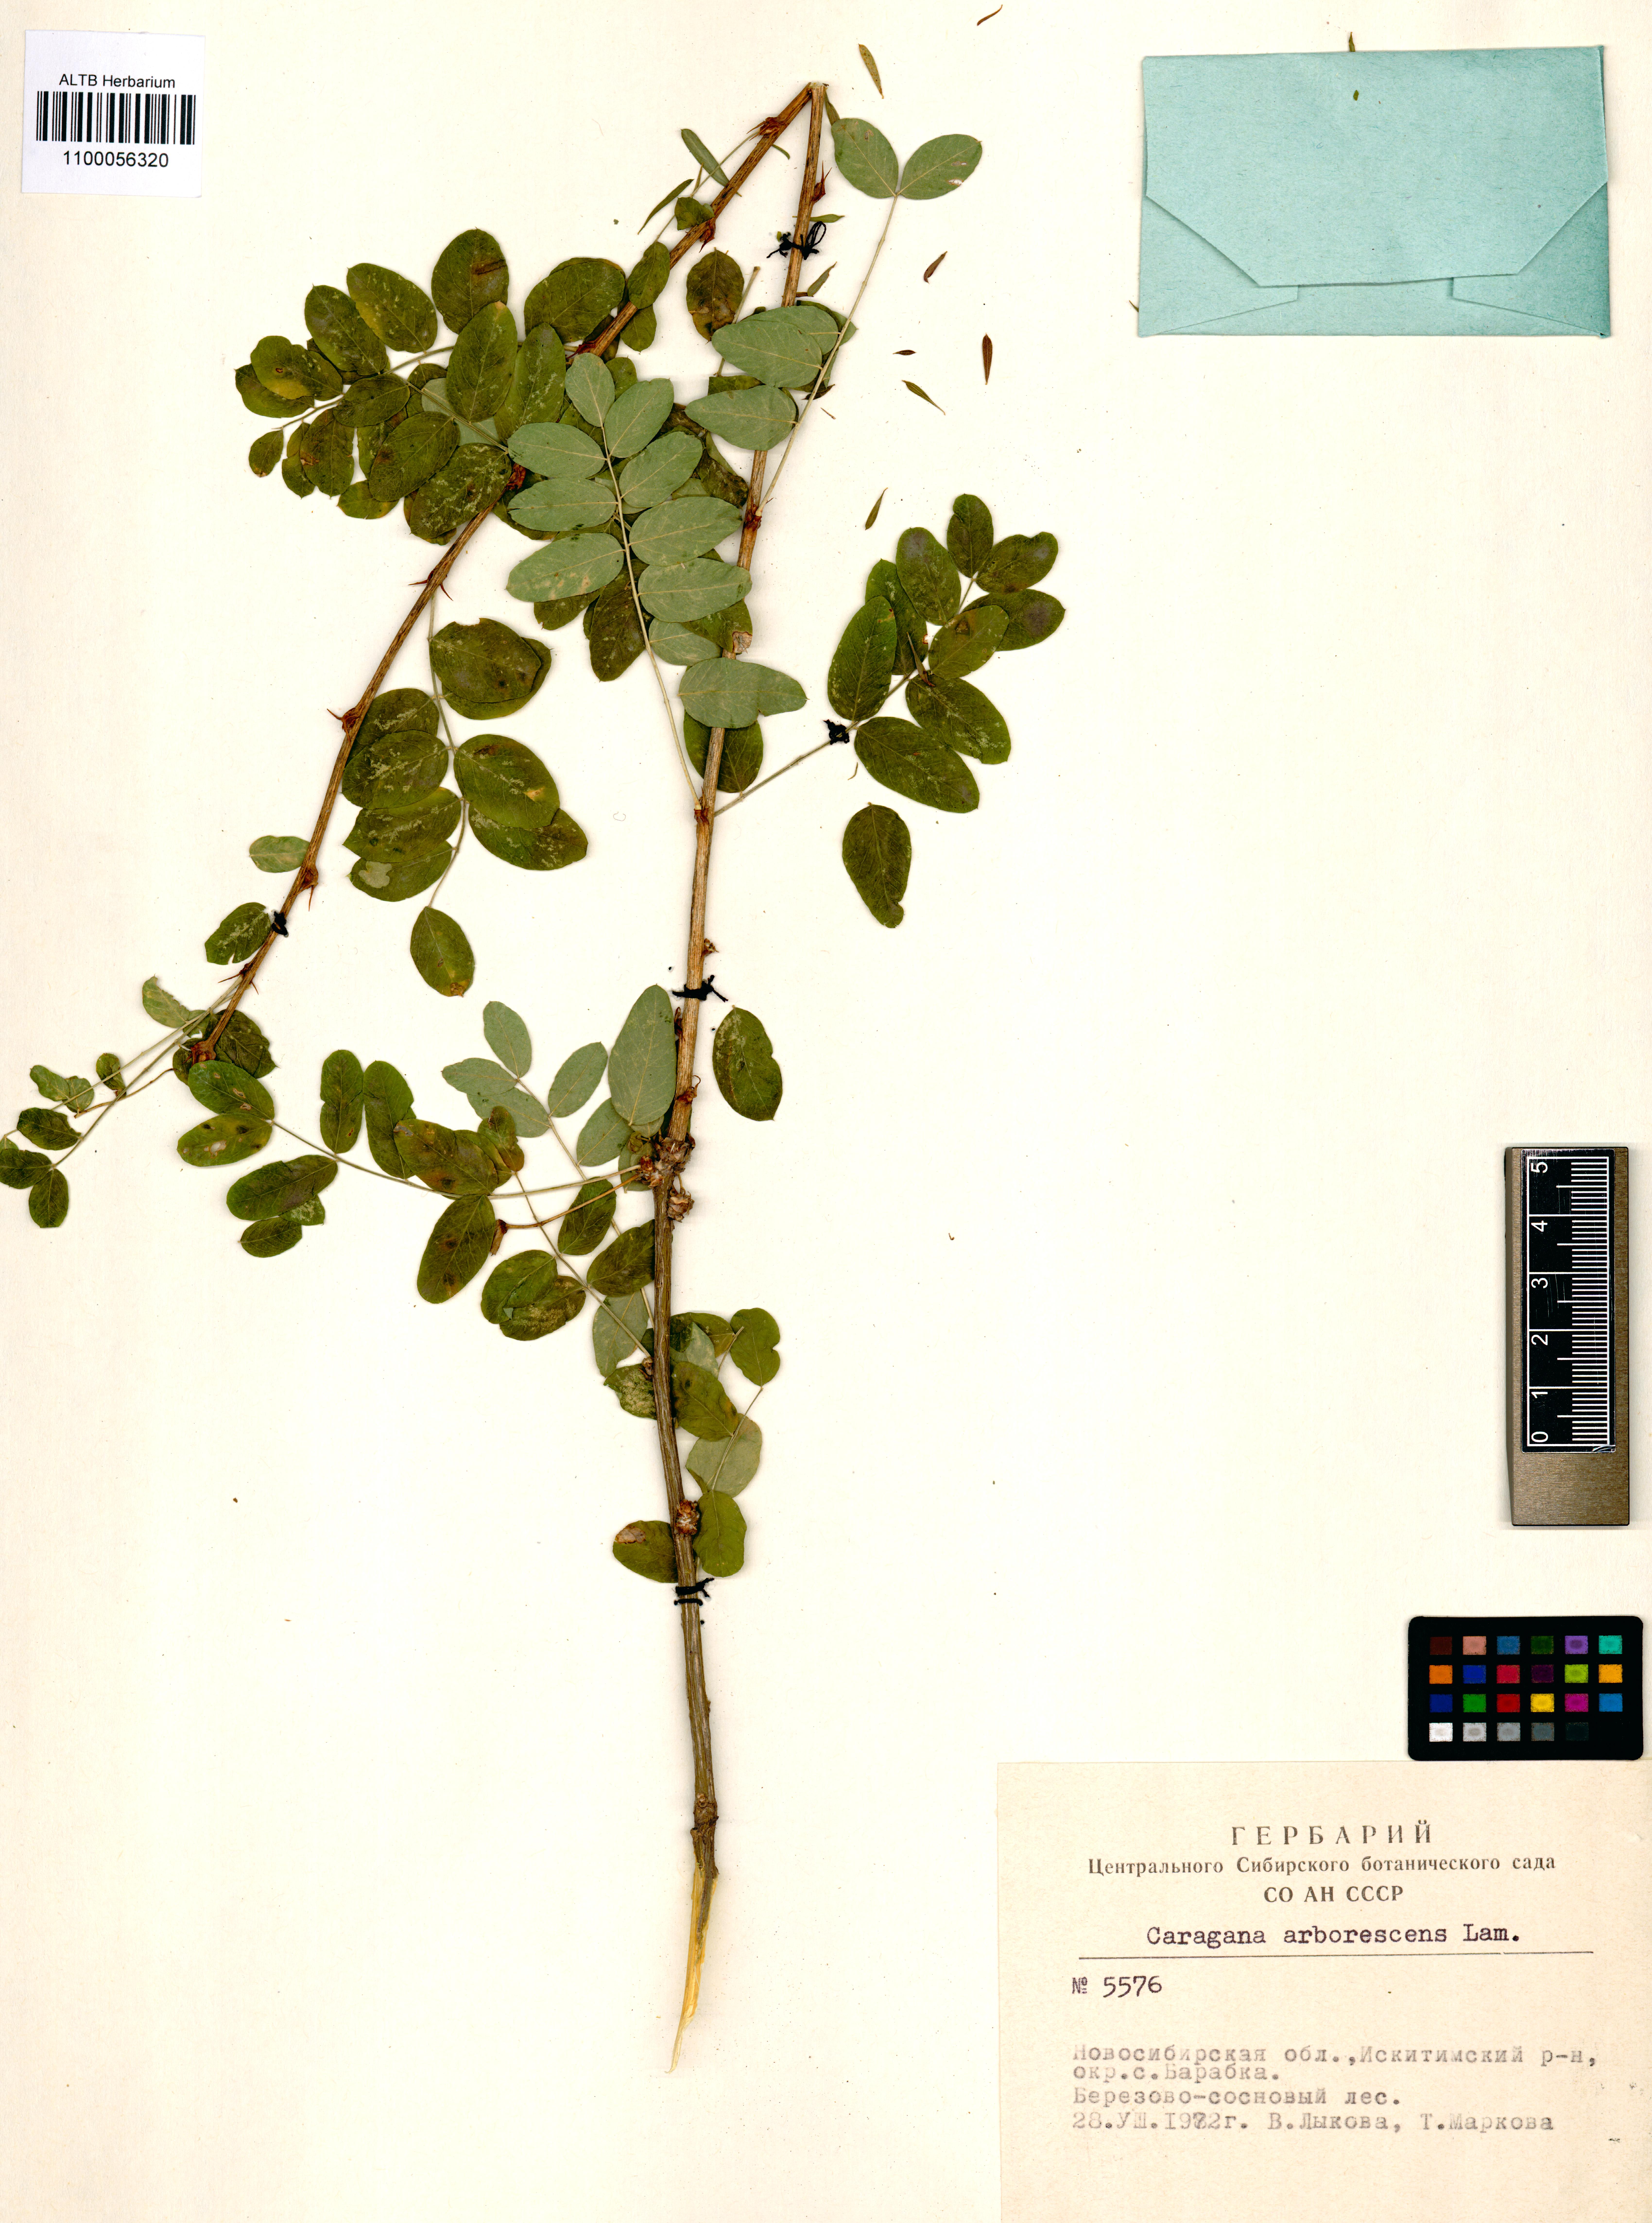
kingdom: Plantae
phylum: Tracheophyta
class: Magnoliopsida
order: Fabales
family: Fabaceae
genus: Caragana
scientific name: Caragana arborescens
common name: Siberian peashrub
